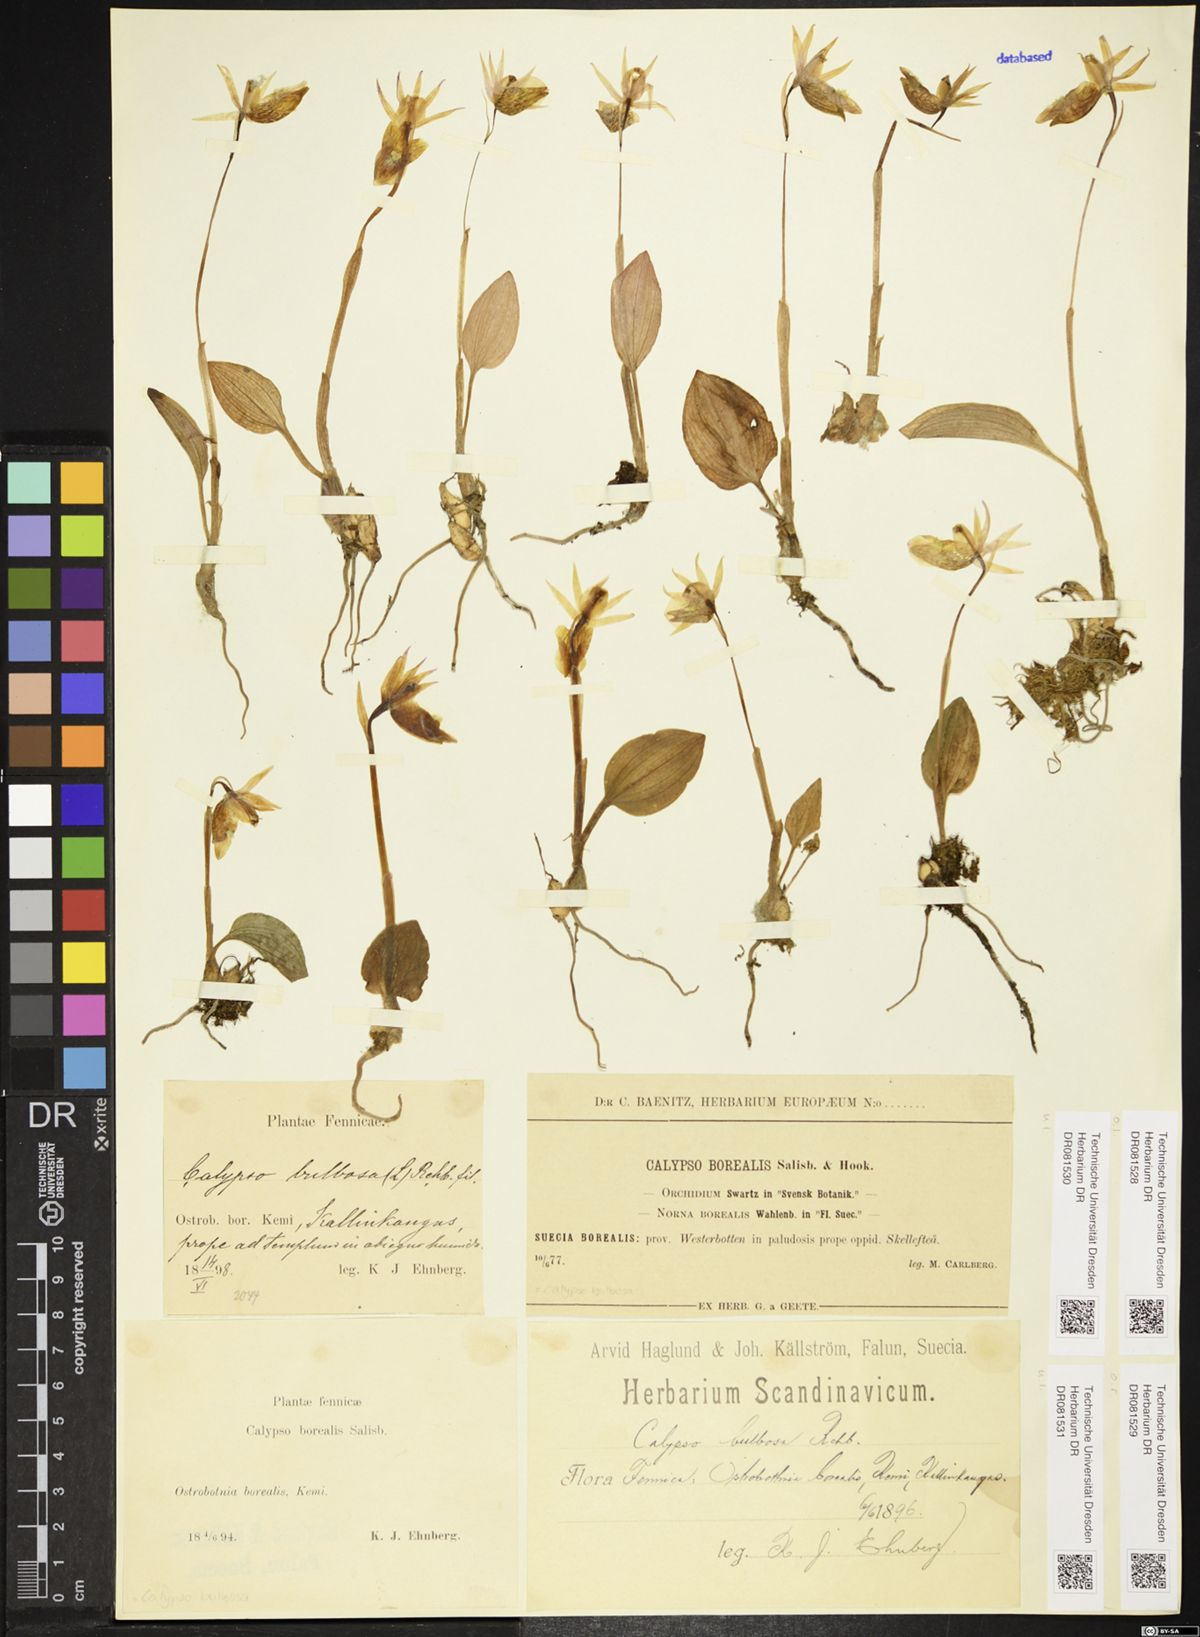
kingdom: Plantae
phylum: Tracheophyta
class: Liliopsida
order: Asparagales
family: Orchidaceae
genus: Calypso
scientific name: Calypso bulbosa
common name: Calypso
